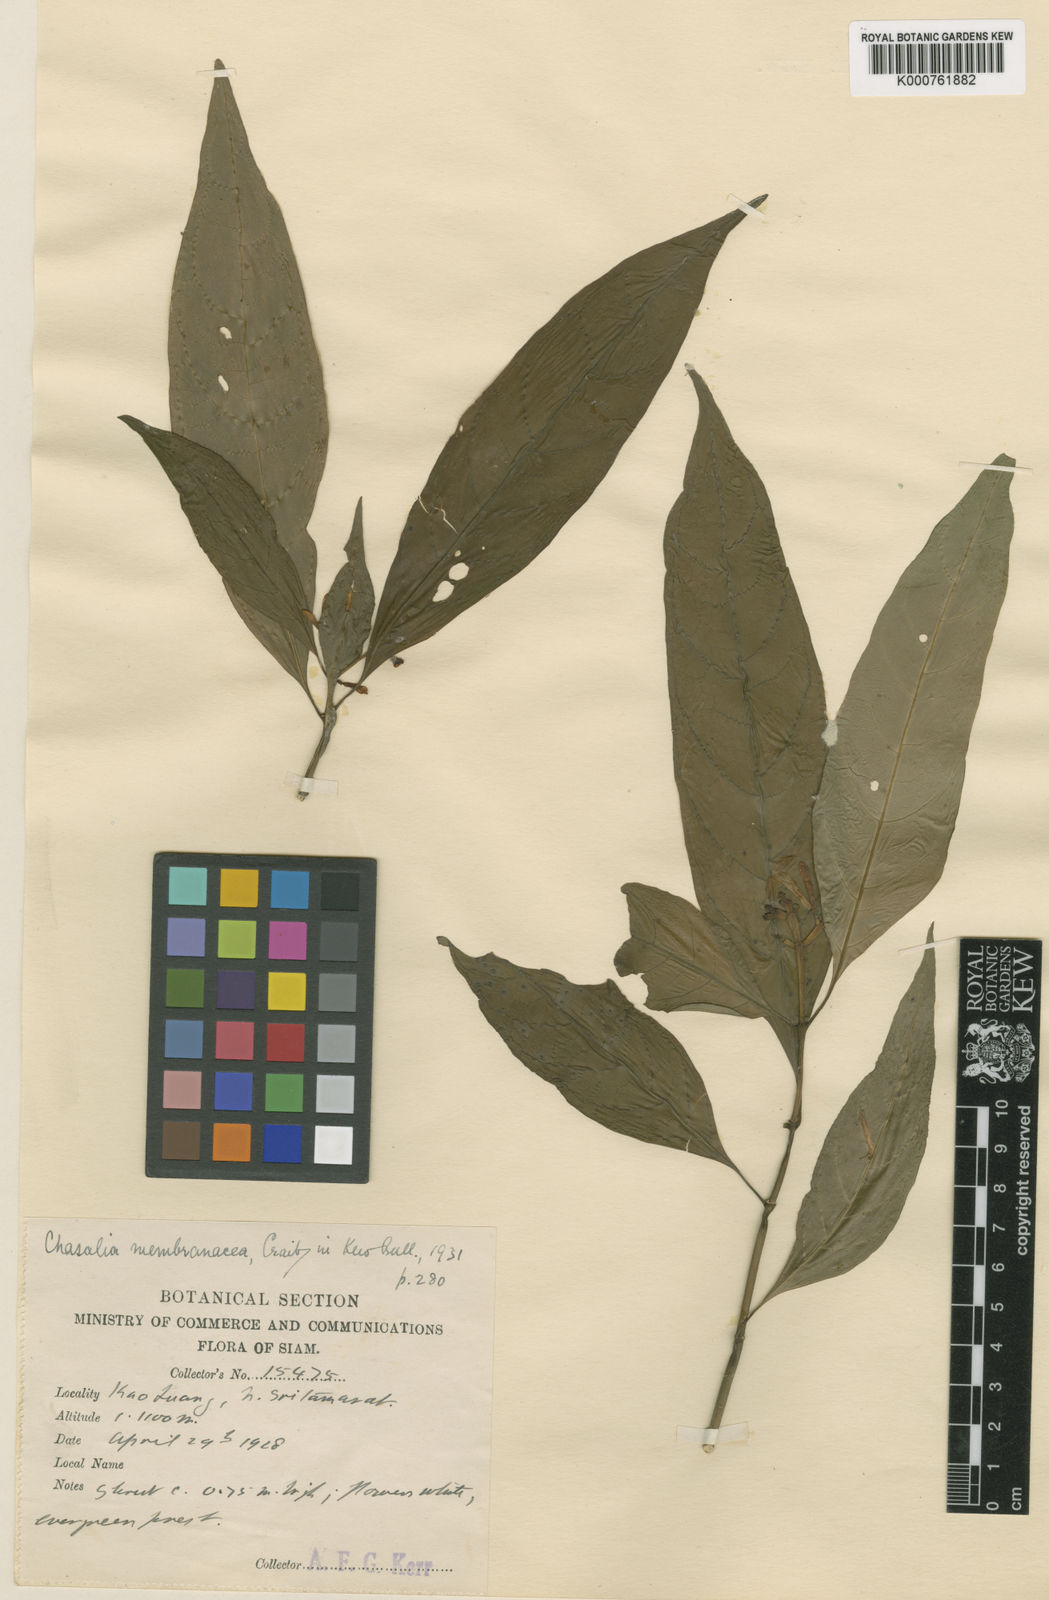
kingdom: Plantae
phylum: Tracheophyta
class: Magnoliopsida
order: Gentianales
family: Rubiaceae
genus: Chassalia
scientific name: Chassalia membranacea
